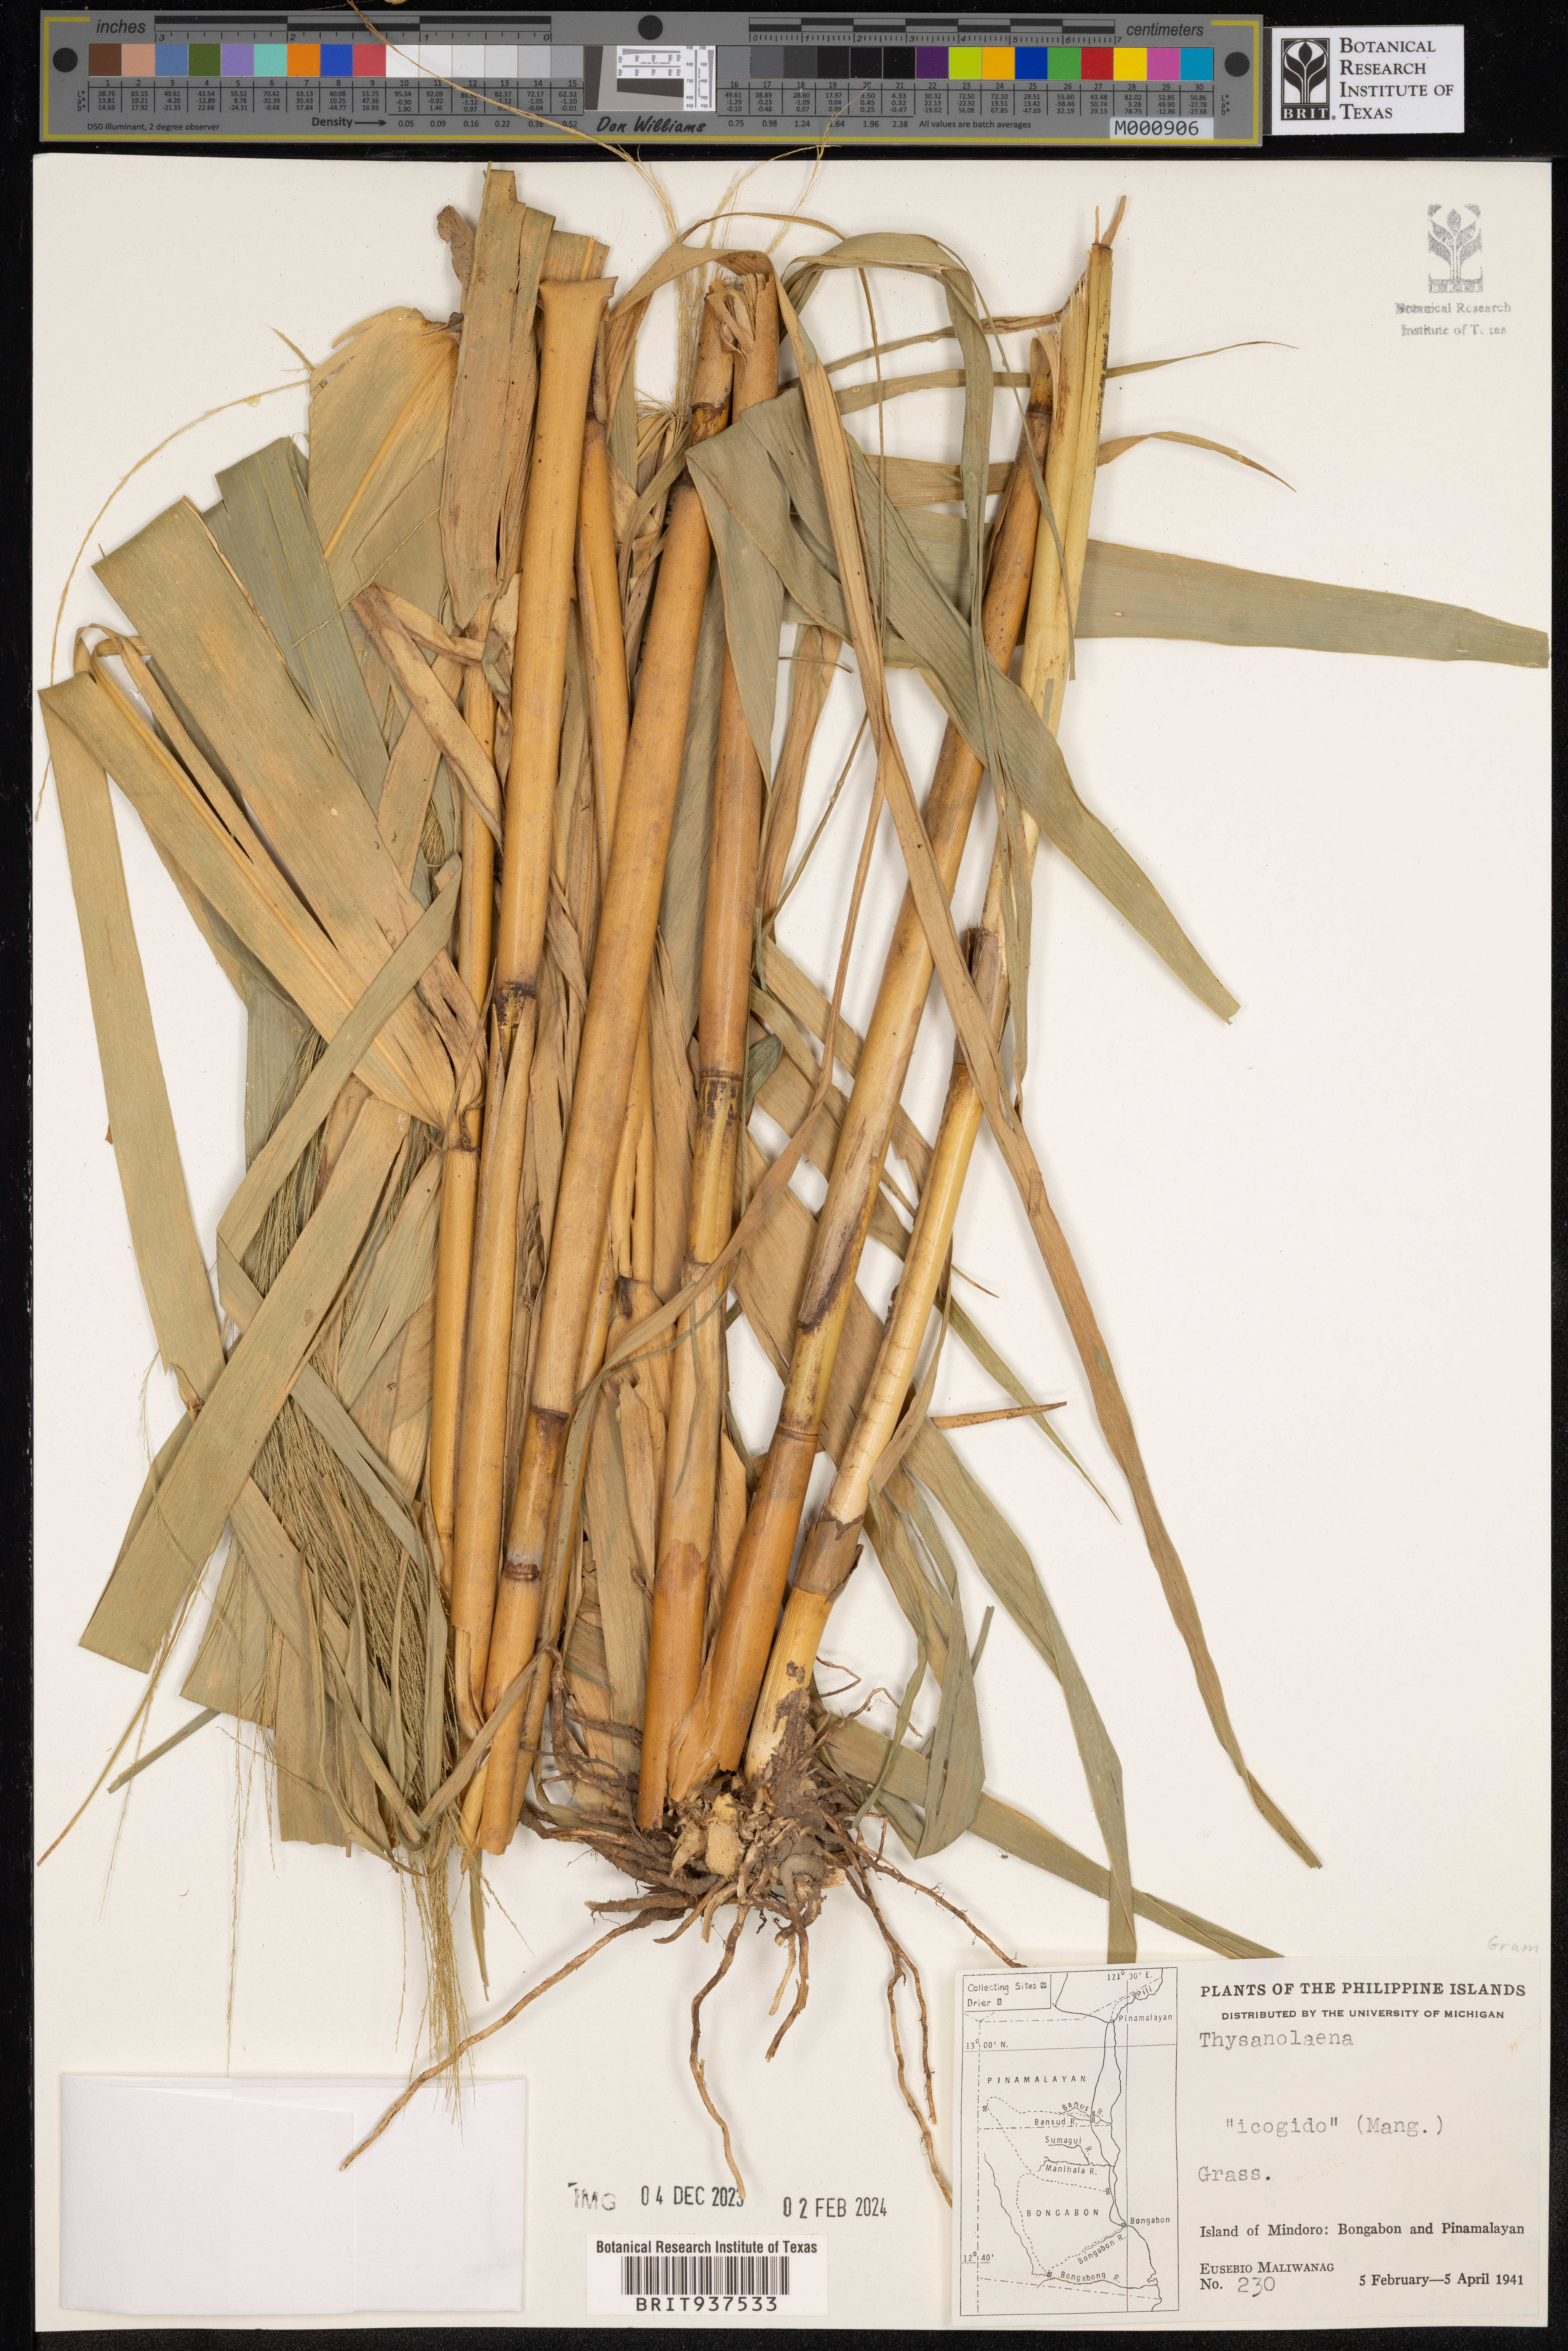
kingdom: Plantae
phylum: Tracheophyta
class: Liliopsida
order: Poales
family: Poaceae
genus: Thysanolaena
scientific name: Thysanolaena
